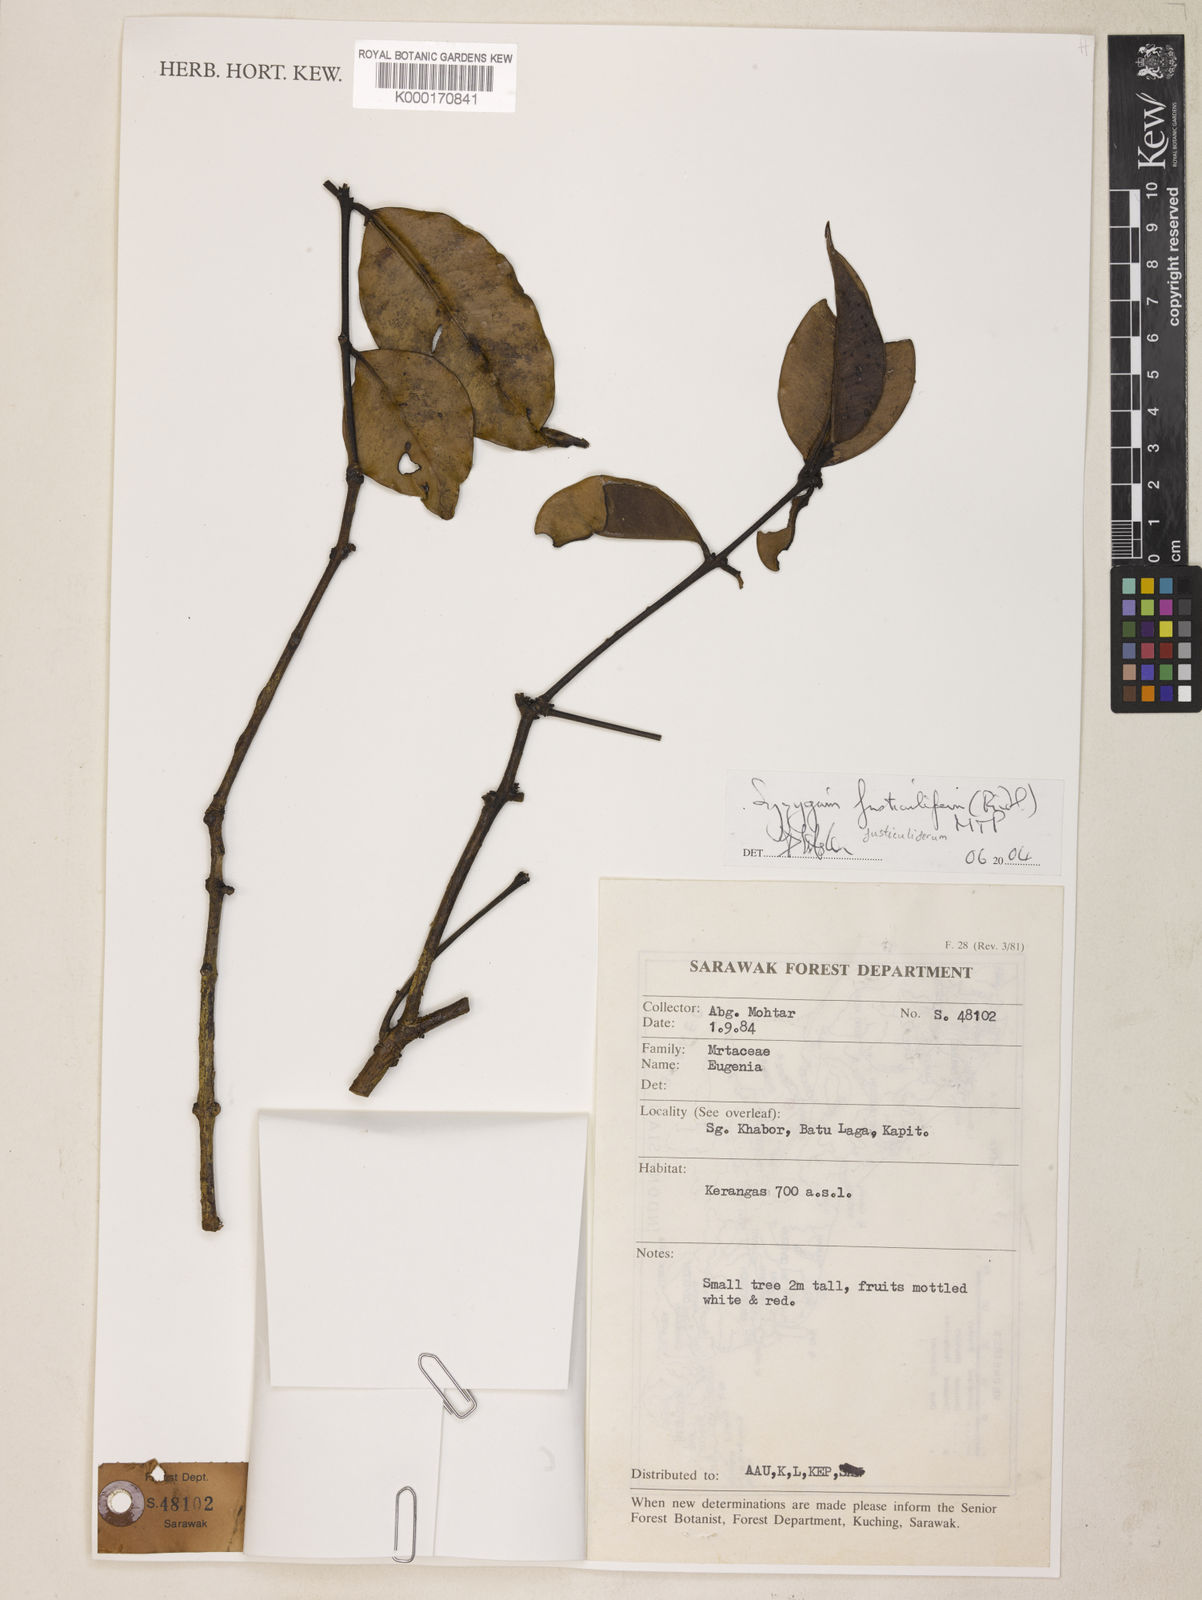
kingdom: Plantae
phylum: Tracheophyta
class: Magnoliopsida
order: Myrtales
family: Myrtaceae
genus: Syzygium
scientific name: Syzygium fusticuliferum
